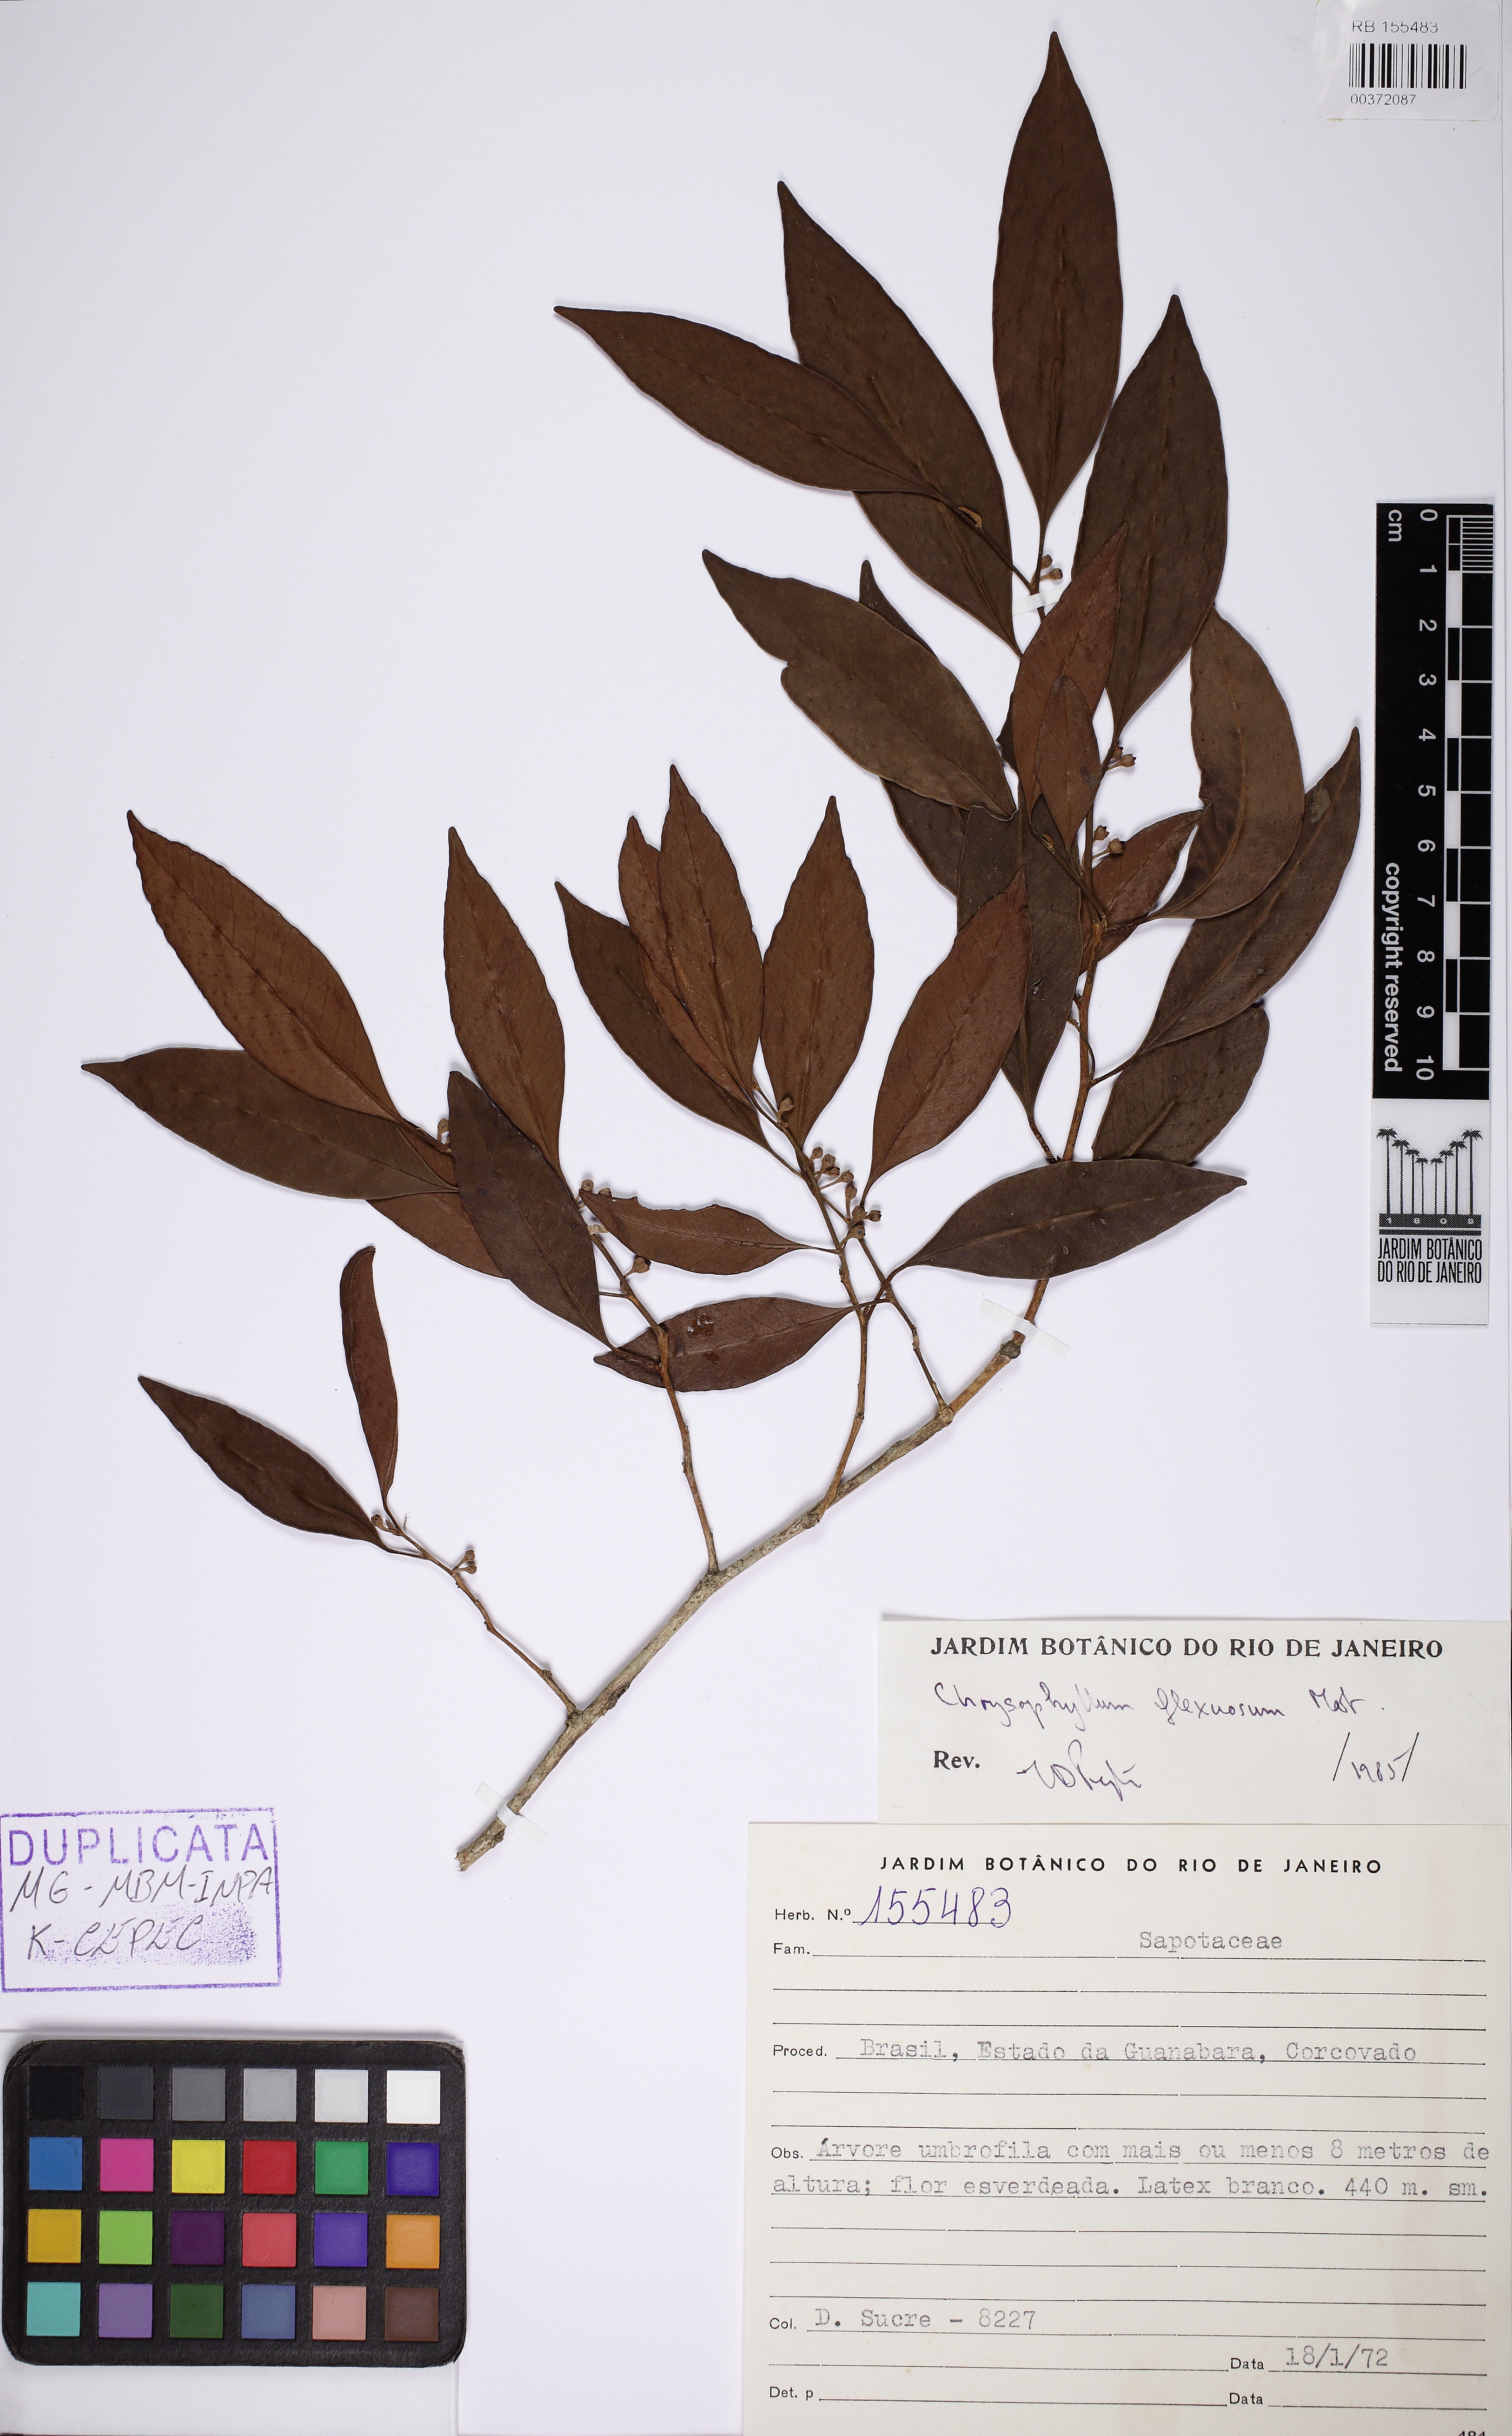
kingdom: Plantae
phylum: Tracheophyta
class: Magnoliopsida
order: Ericales
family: Sapotaceae
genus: Chrysophyllum
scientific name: Chrysophyllum flexuosum
